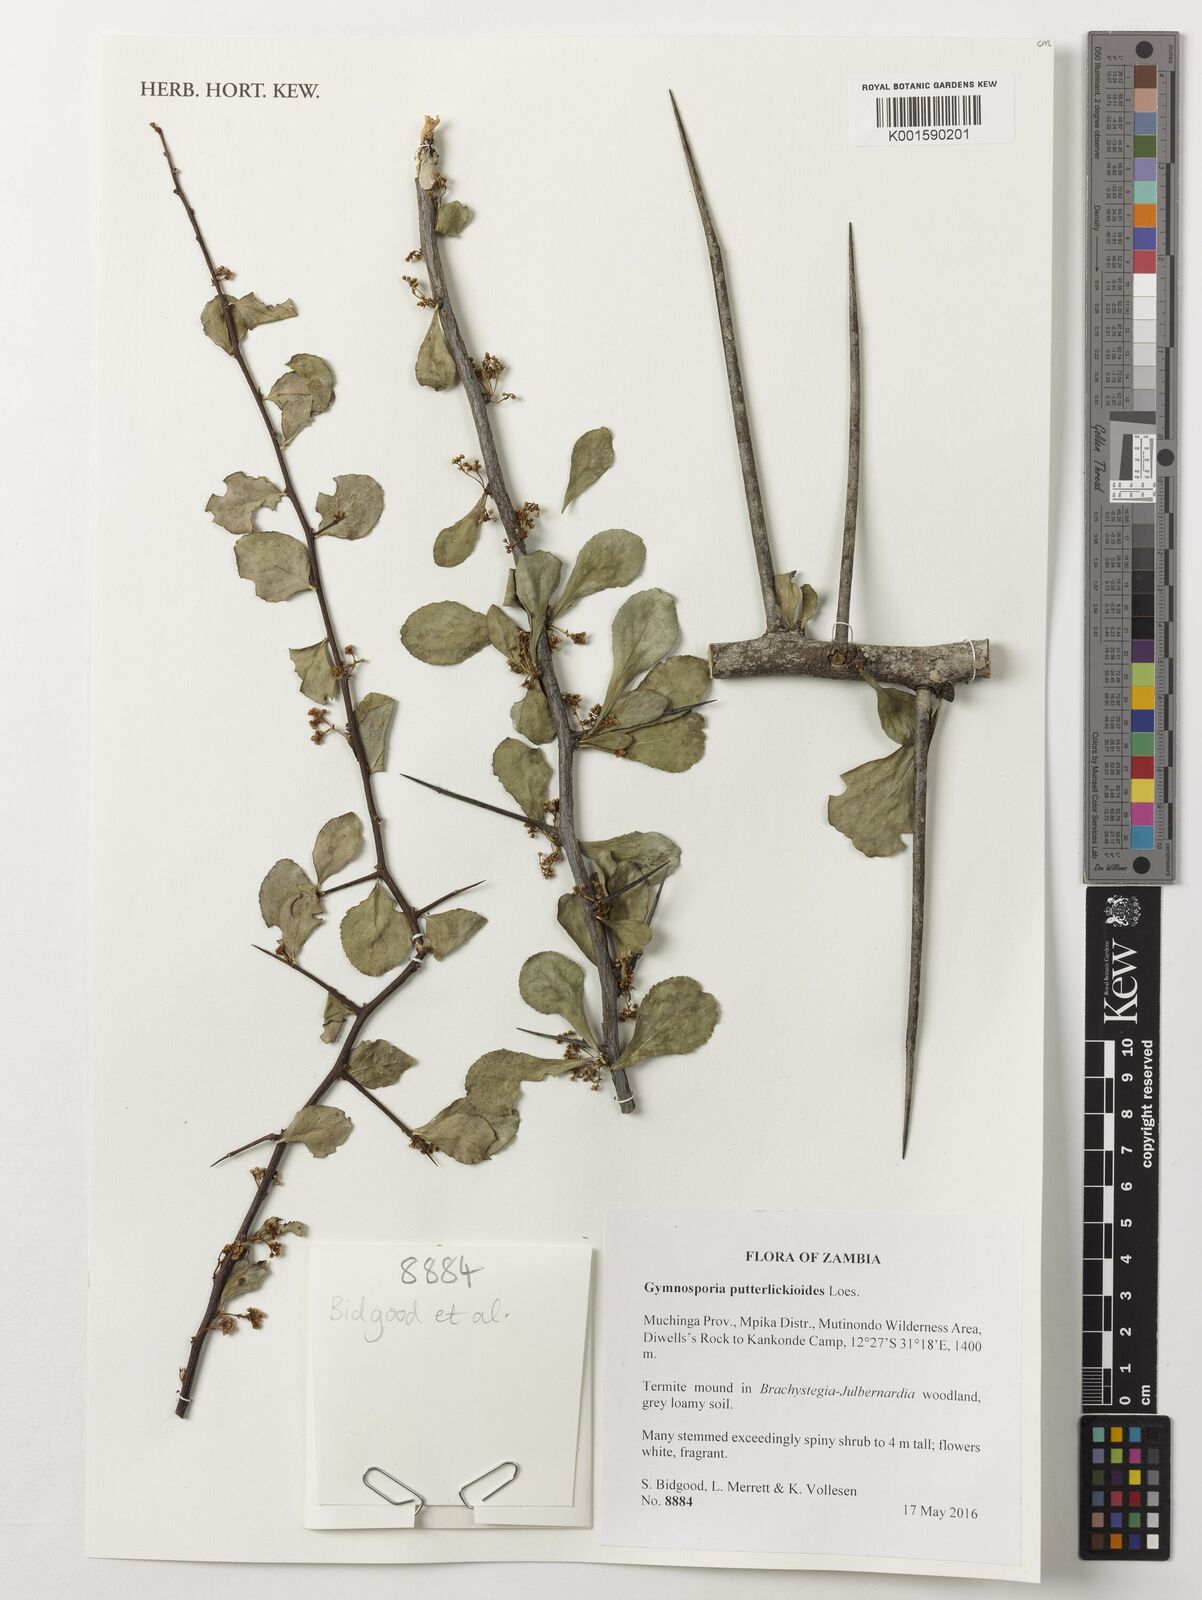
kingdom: Plantae
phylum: Tracheophyta
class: Magnoliopsida
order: Celastrales
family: Celastraceae
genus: Gymnosporia
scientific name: Gymnosporia putterlickioides
